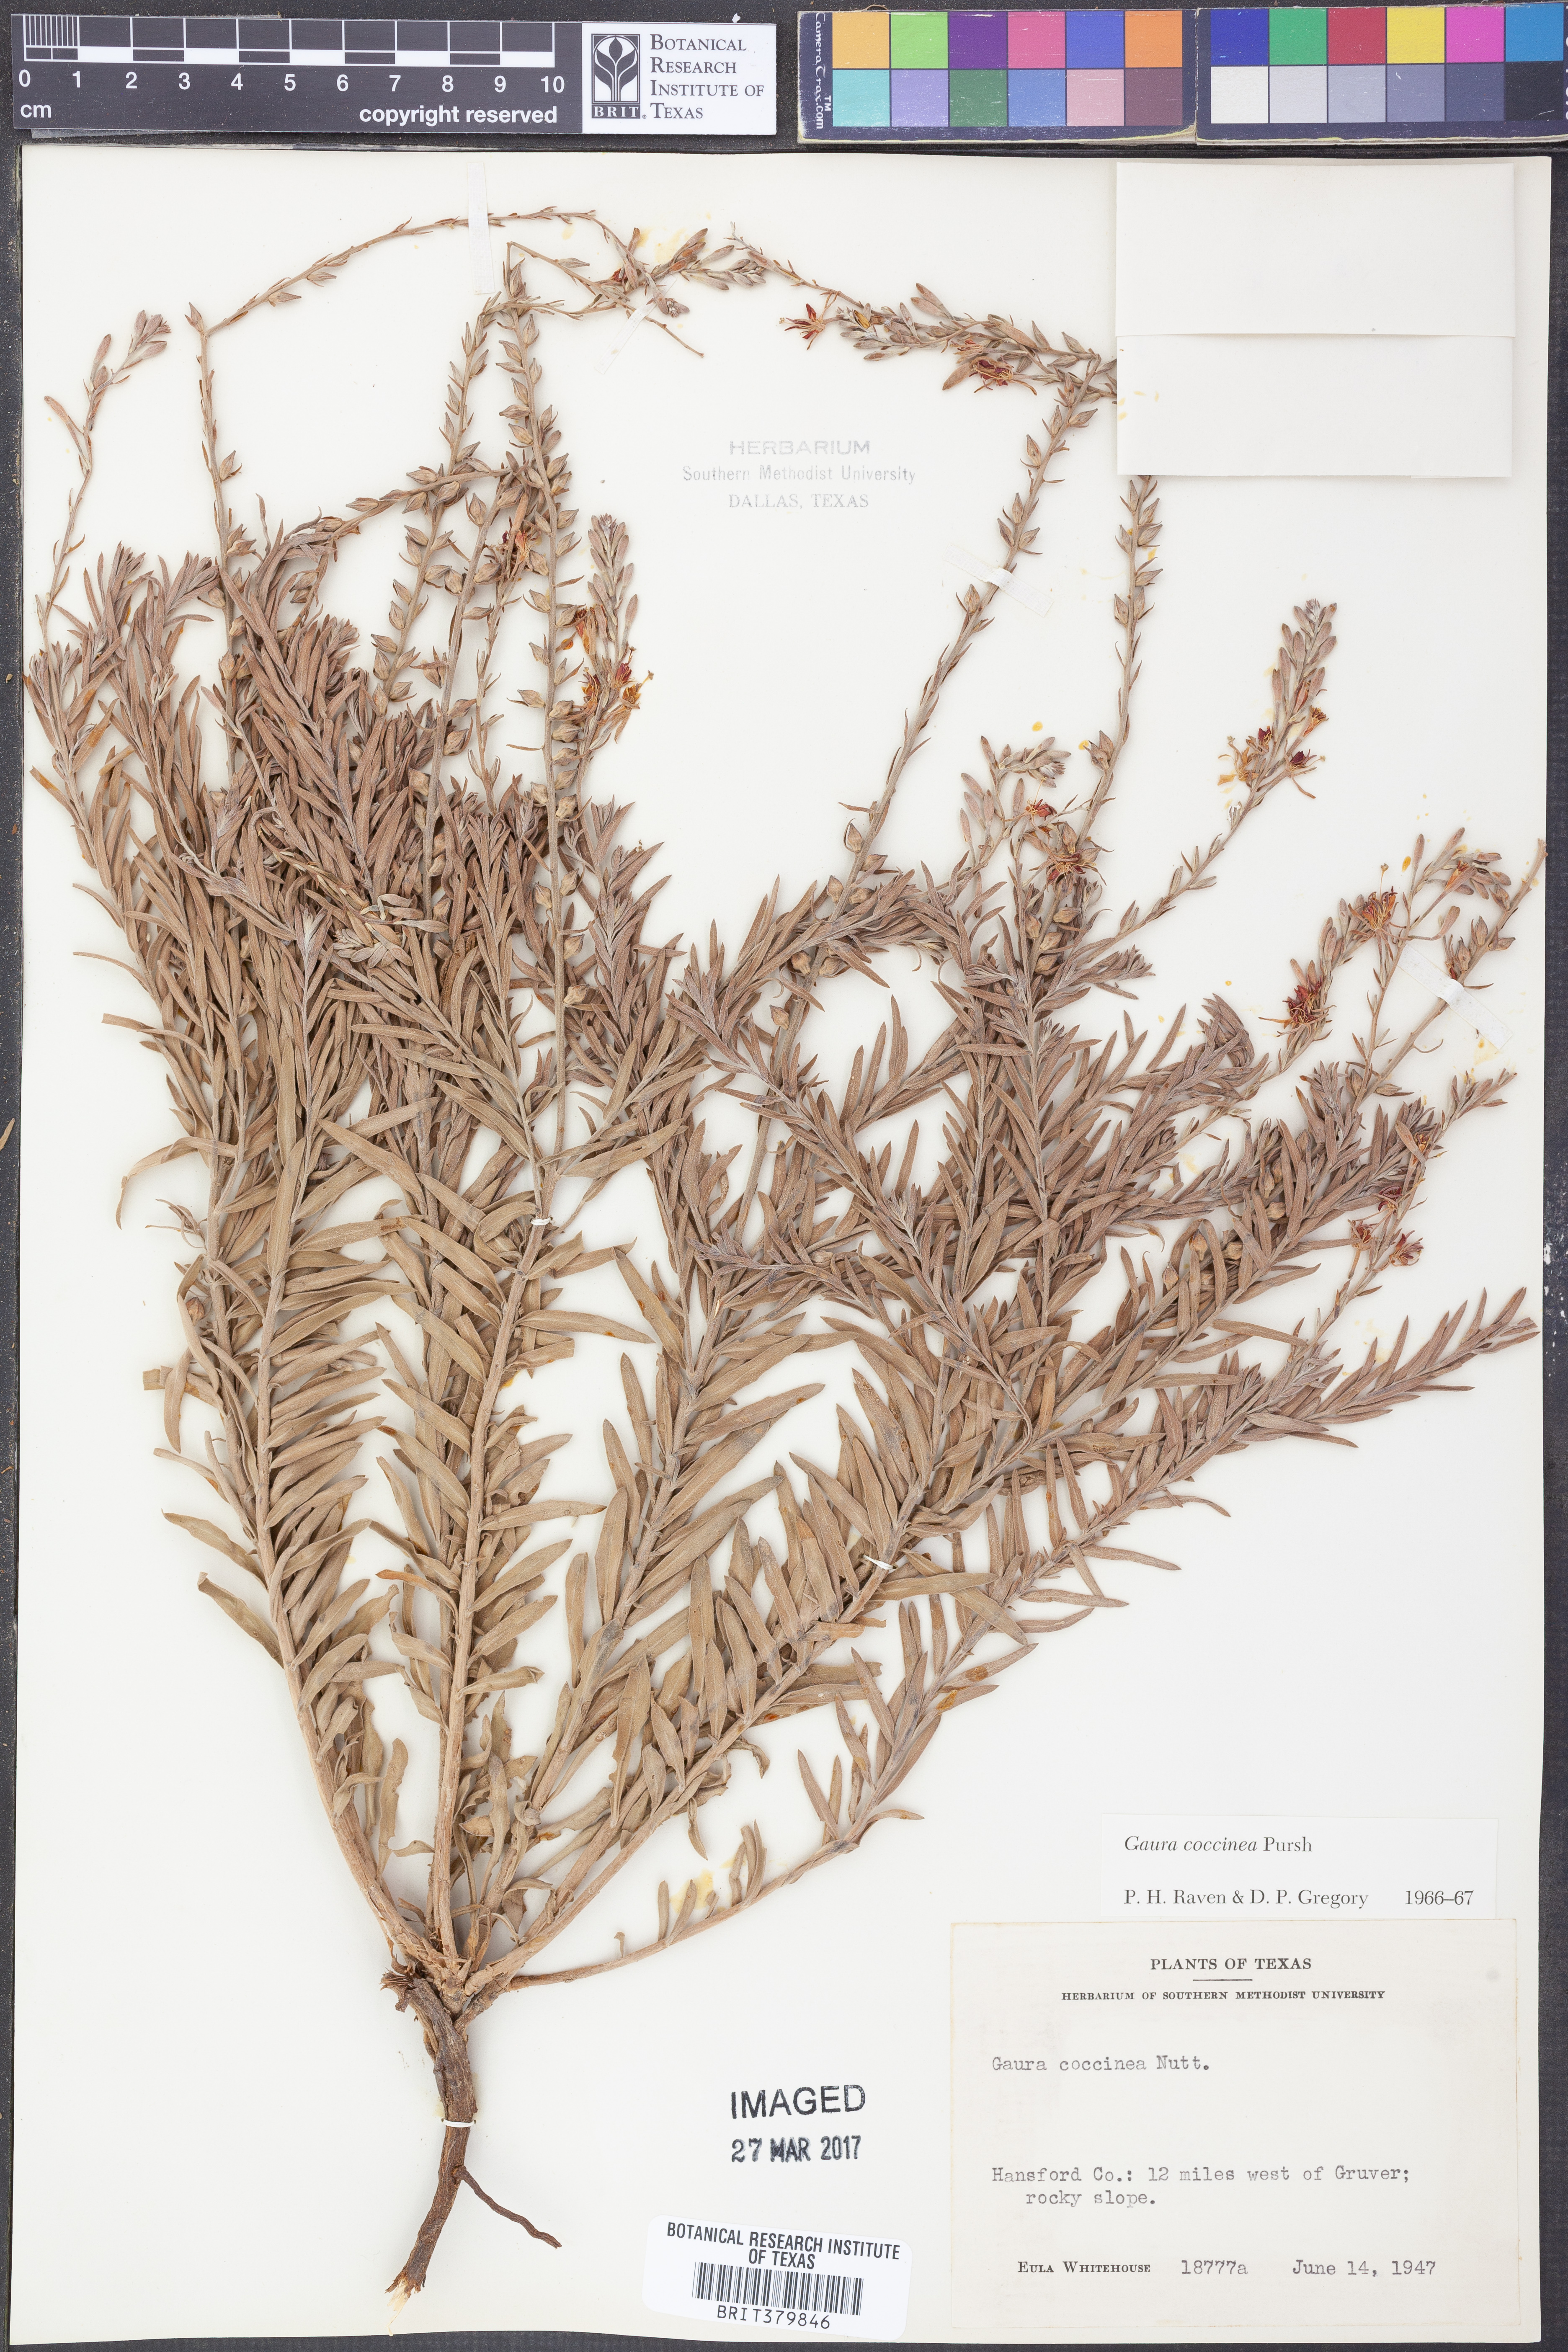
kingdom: Plantae
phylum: Tracheophyta
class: Magnoliopsida
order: Myrtales
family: Onagraceae
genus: Oenothera
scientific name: Oenothera suffrutescens
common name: Scarlet beeblossom
